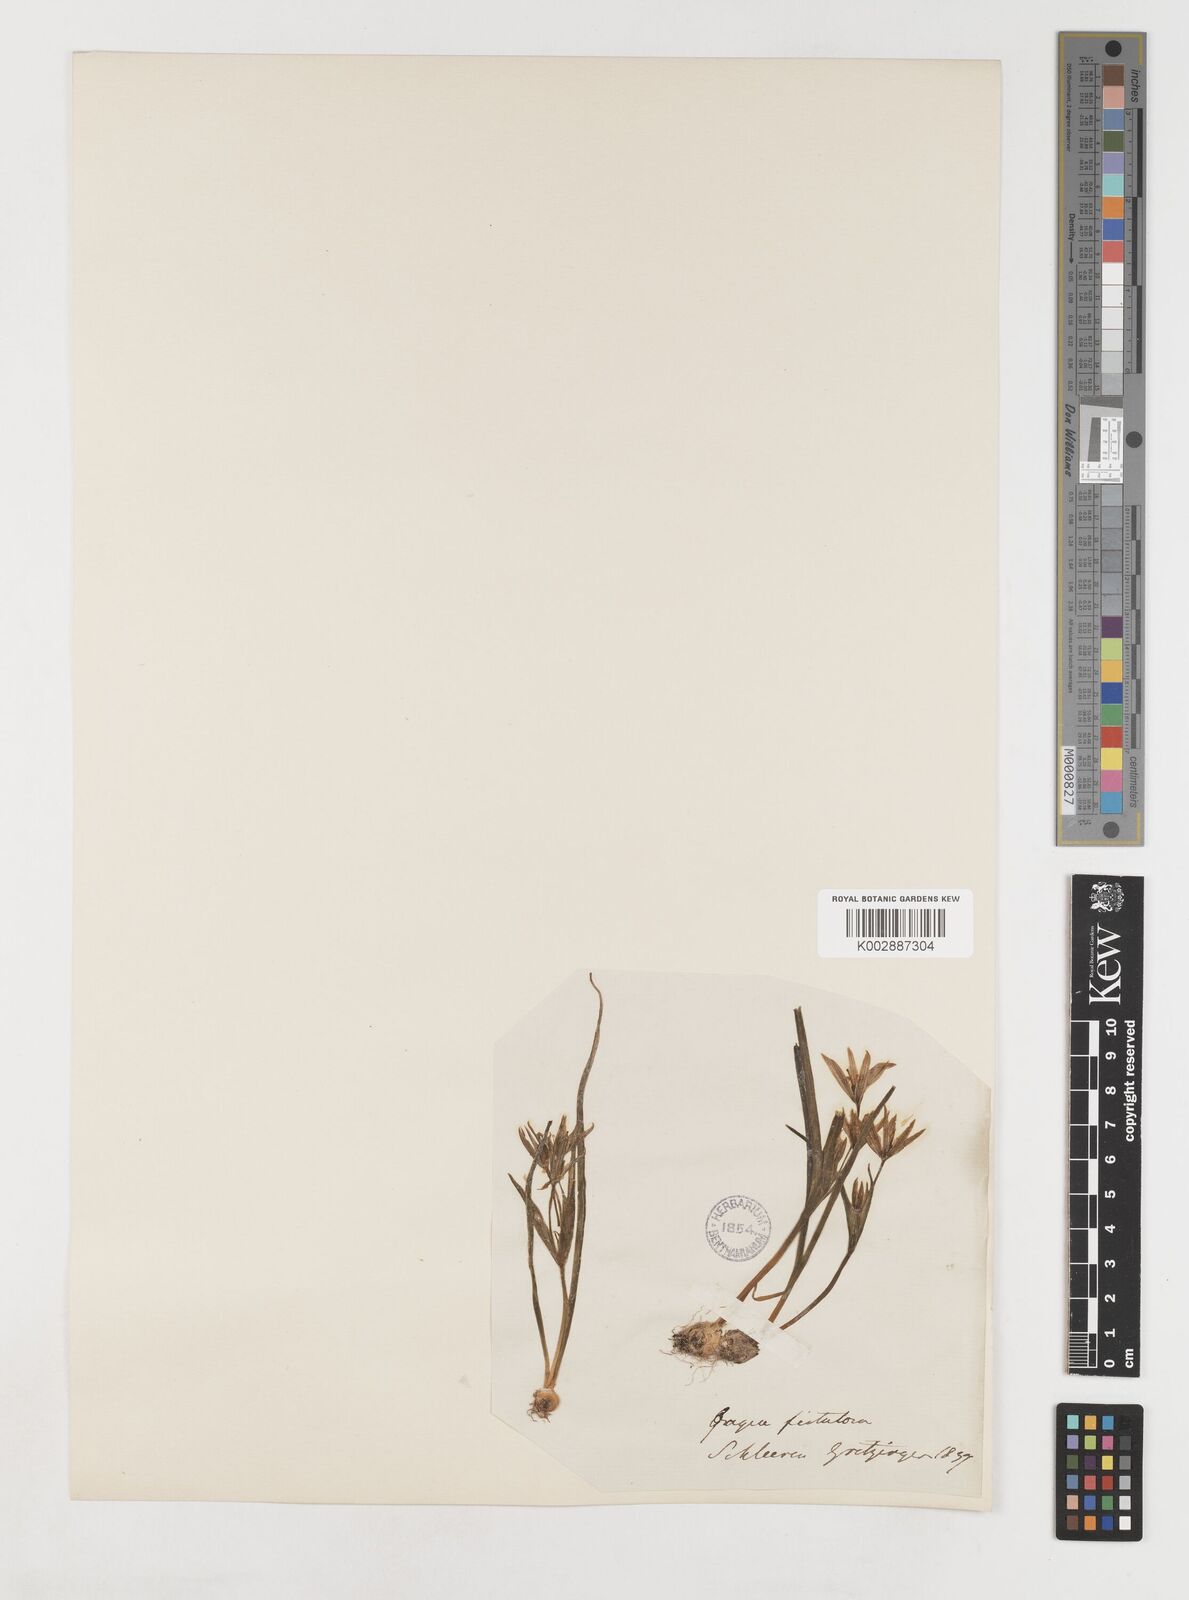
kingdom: Plantae
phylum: Tracheophyta
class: Liliopsida
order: Liliales
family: Liliaceae
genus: Gagea
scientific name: Gagea bohemica
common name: Early star-of-bethlehem
